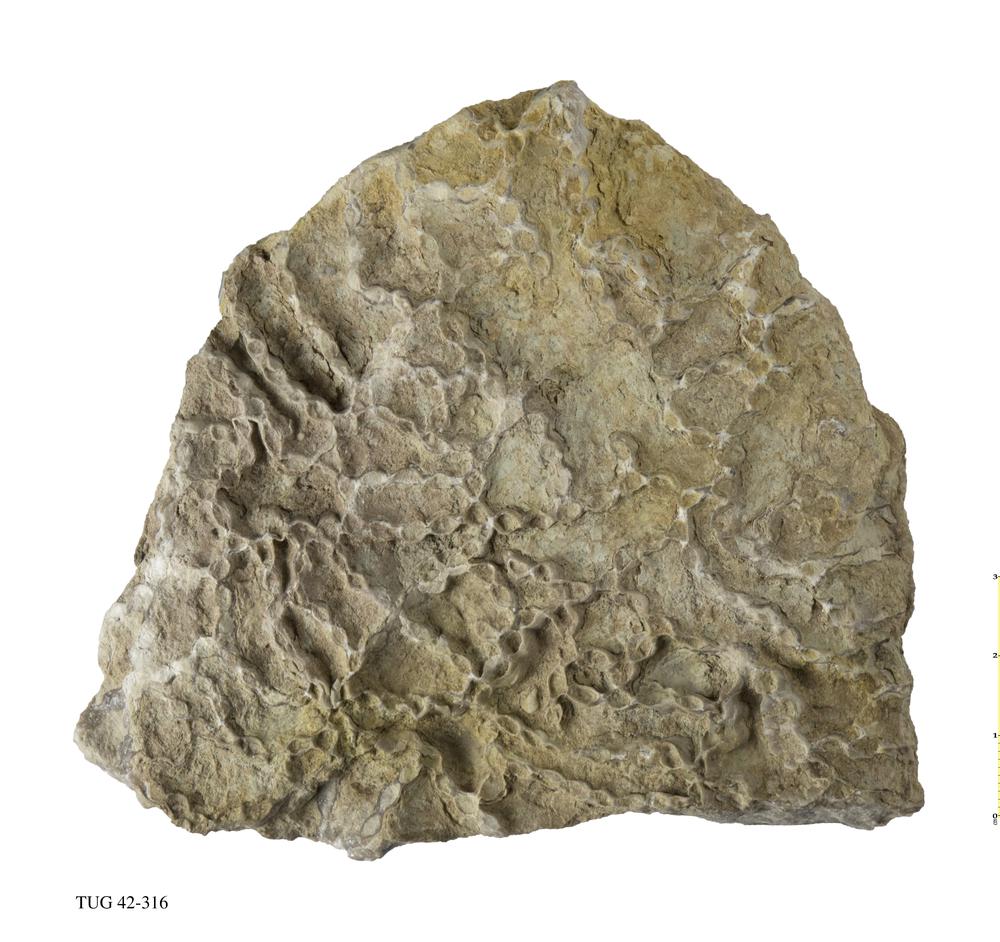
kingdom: Animalia
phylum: Cnidaria
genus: Syringophyllum
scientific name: Syringophyllum
